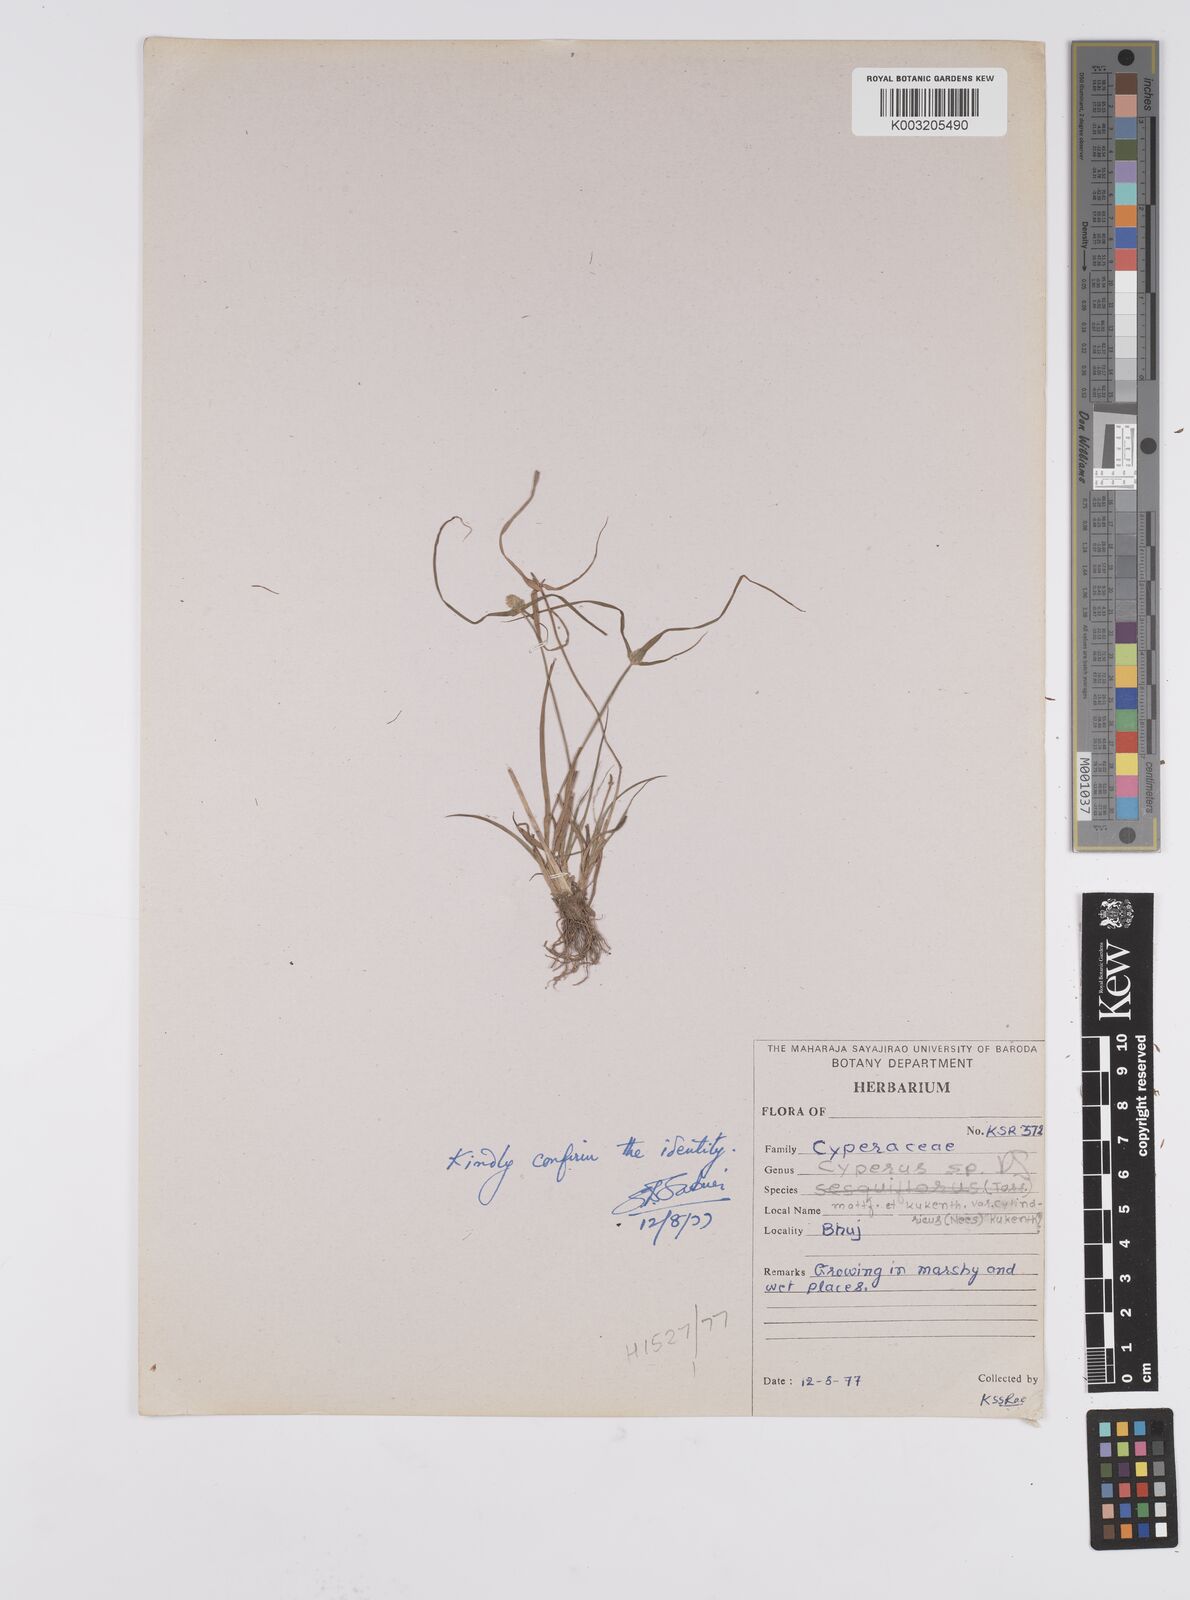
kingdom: Plantae
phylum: Tracheophyta
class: Liliopsida
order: Poales
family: Cyperaceae
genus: Cyperus
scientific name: Cyperus
